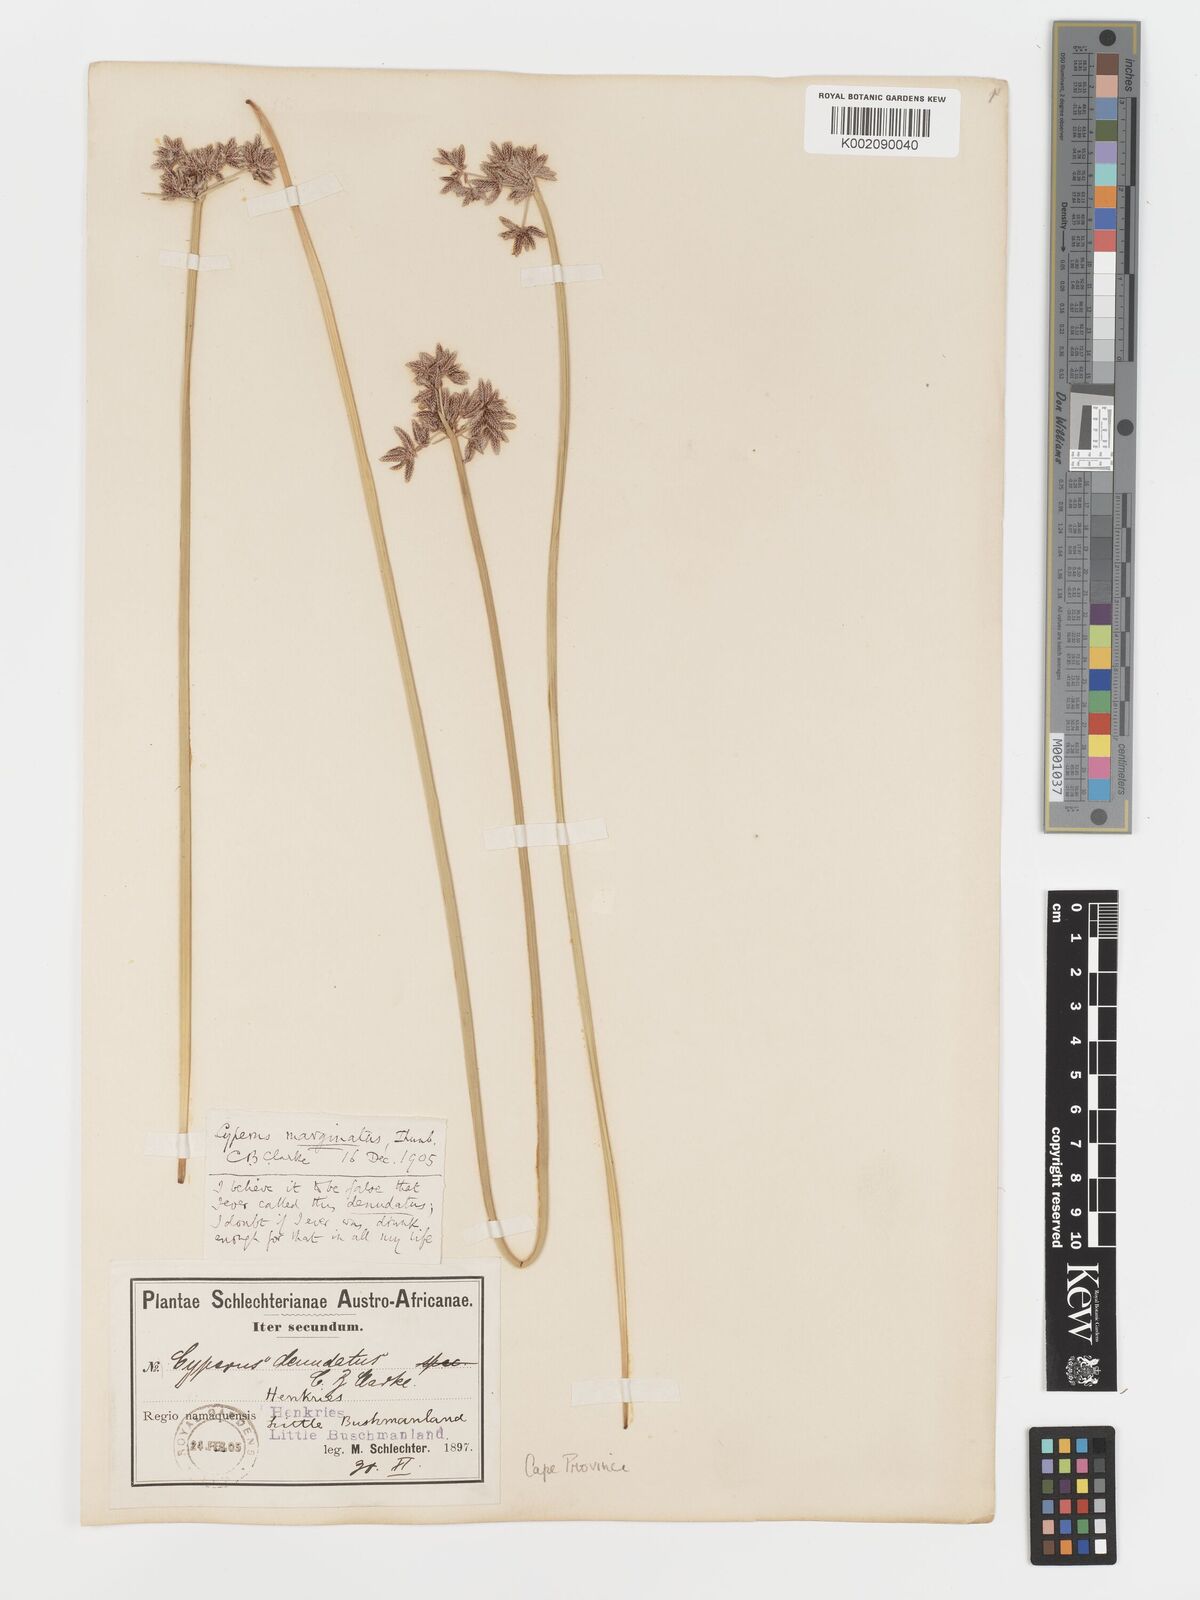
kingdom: Plantae
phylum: Tracheophyta
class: Liliopsida
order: Poales
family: Cyperaceae
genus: Cyperus
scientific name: Cyperus marginatus
